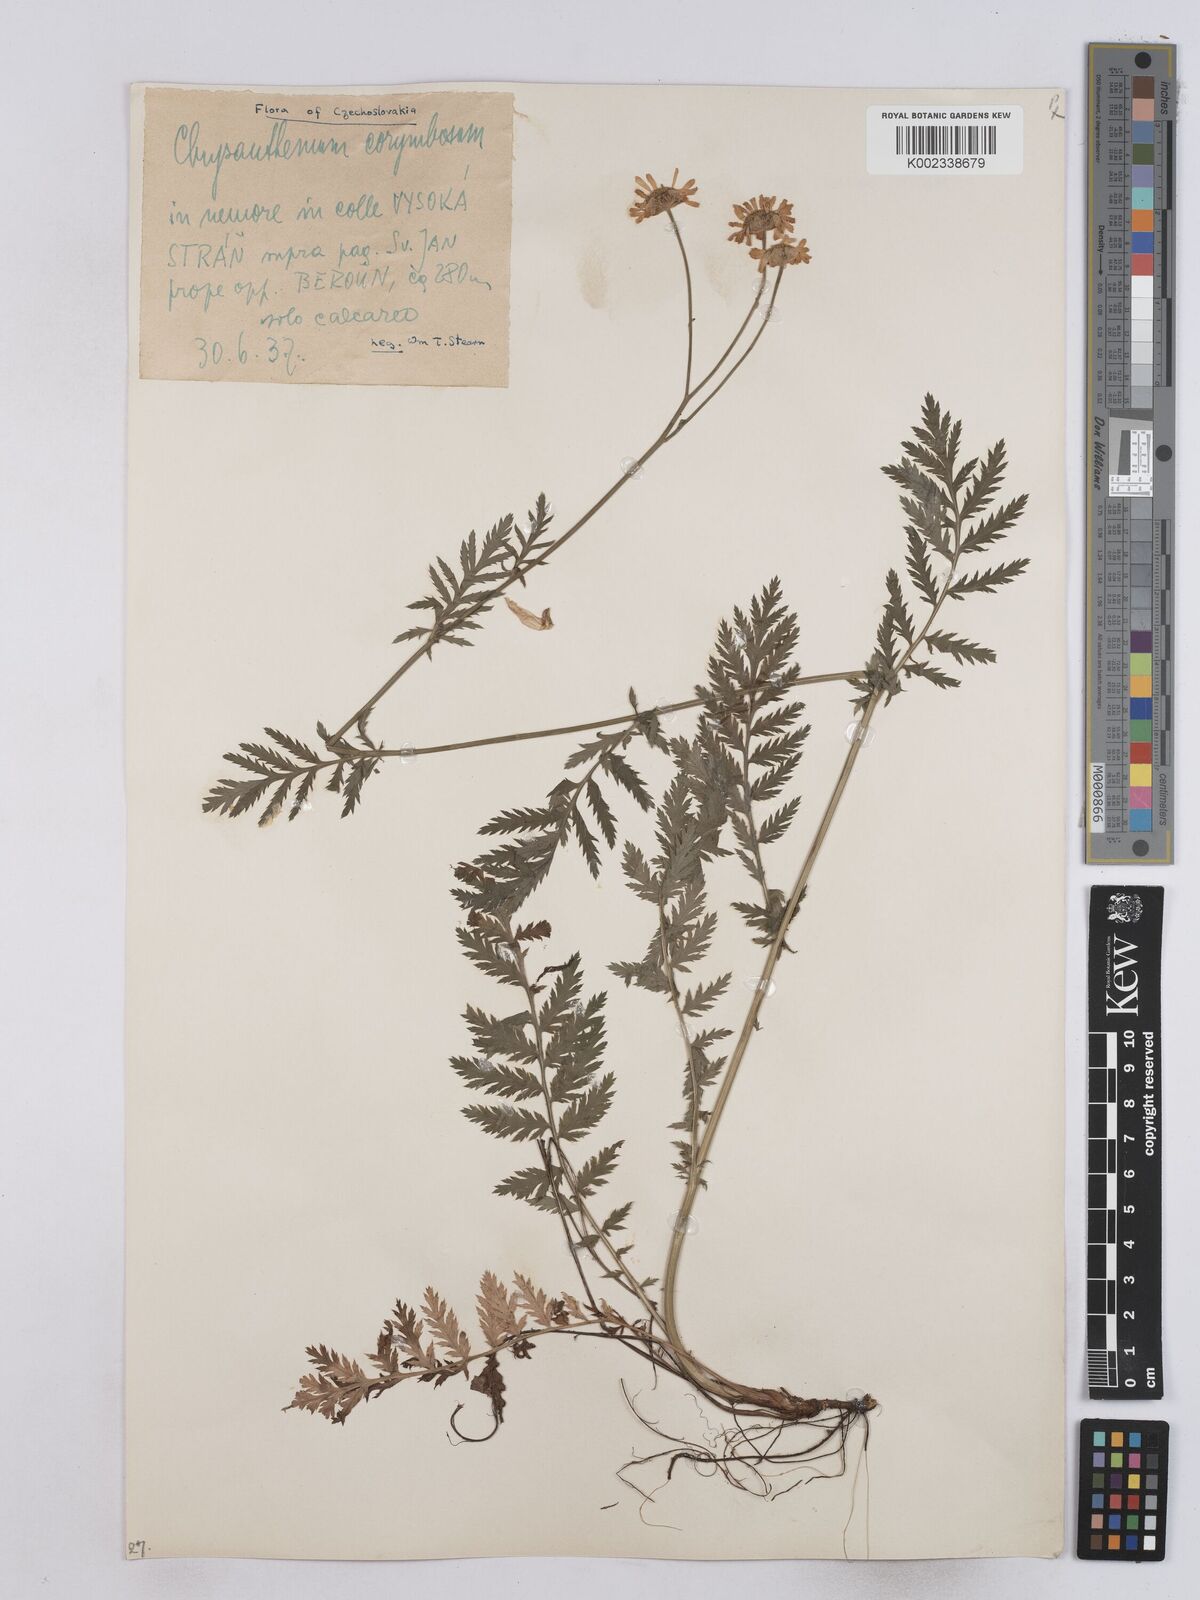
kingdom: Plantae
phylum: Tracheophyta
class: Magnoliopsida
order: Asterales
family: Asteraceae
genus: Tanacetum
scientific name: Tanacetum corymbosum
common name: Scentless feverfew
